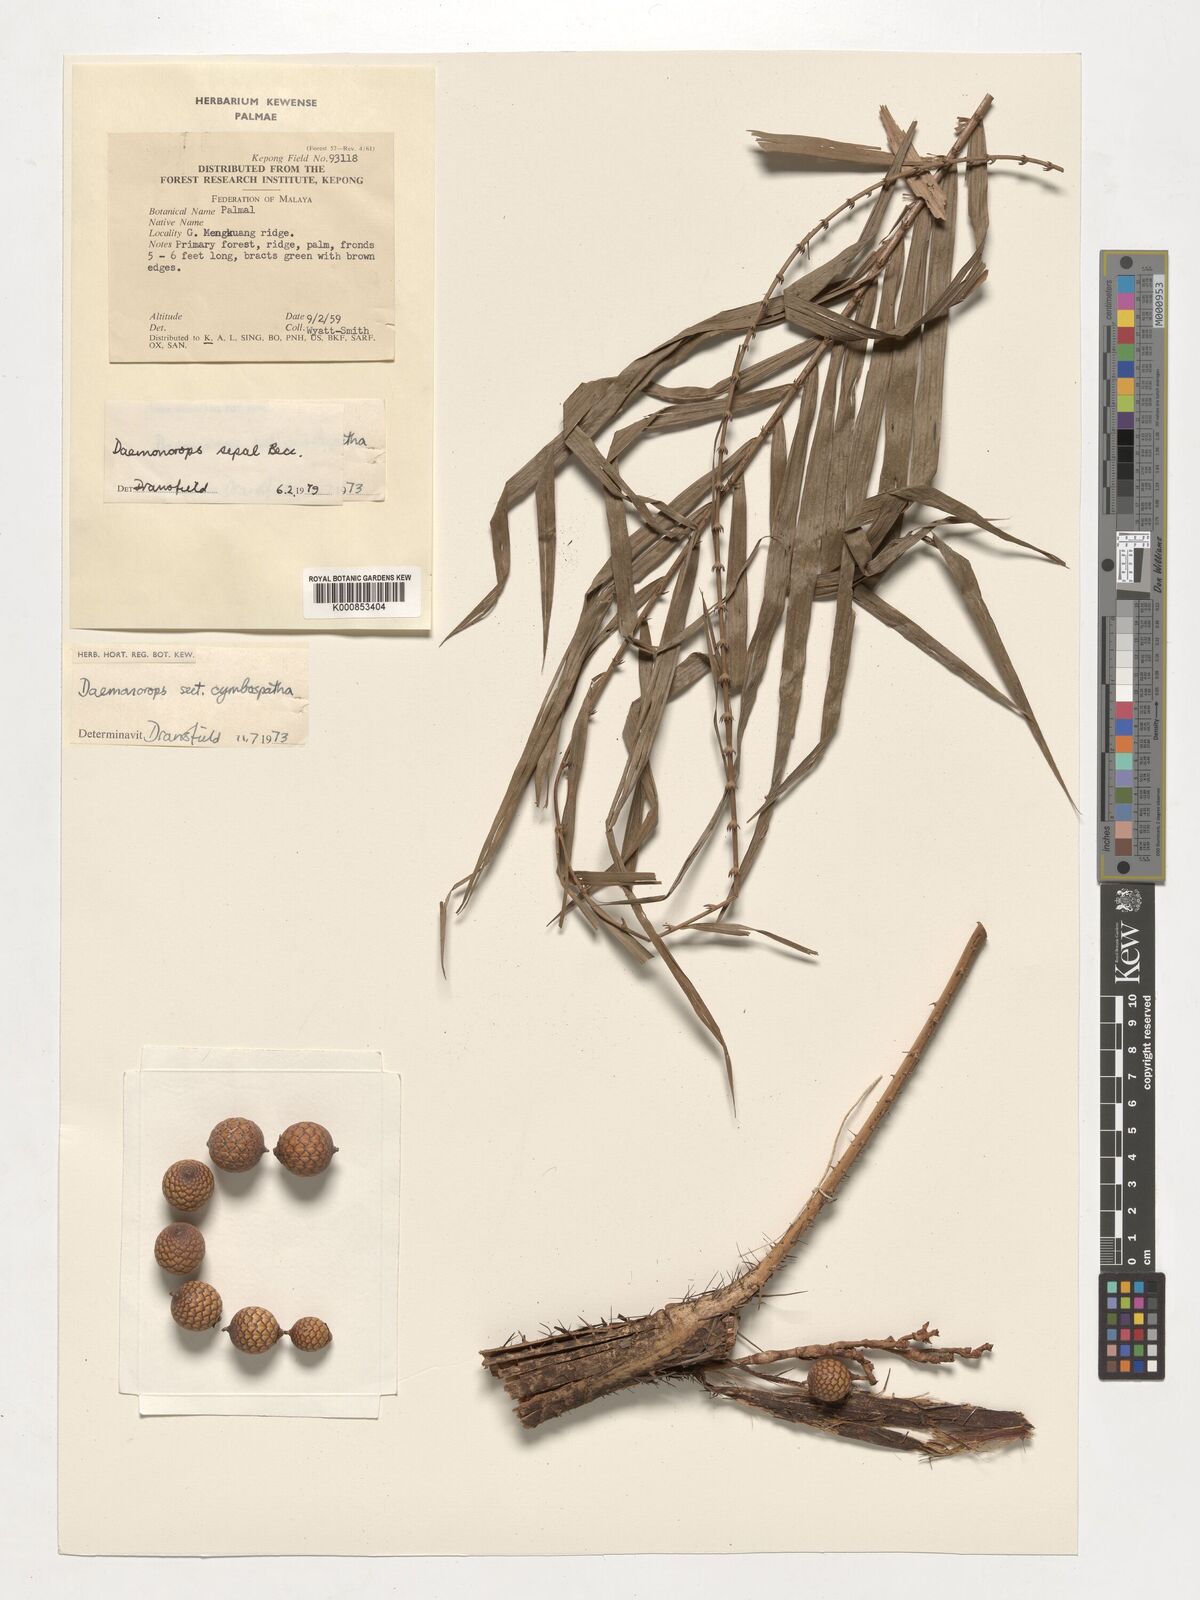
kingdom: Plantae
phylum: Tracheophyta
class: Liliopsida
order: Arecales
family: Arecaceae
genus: Calamus
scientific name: Calamus melanochaetes
